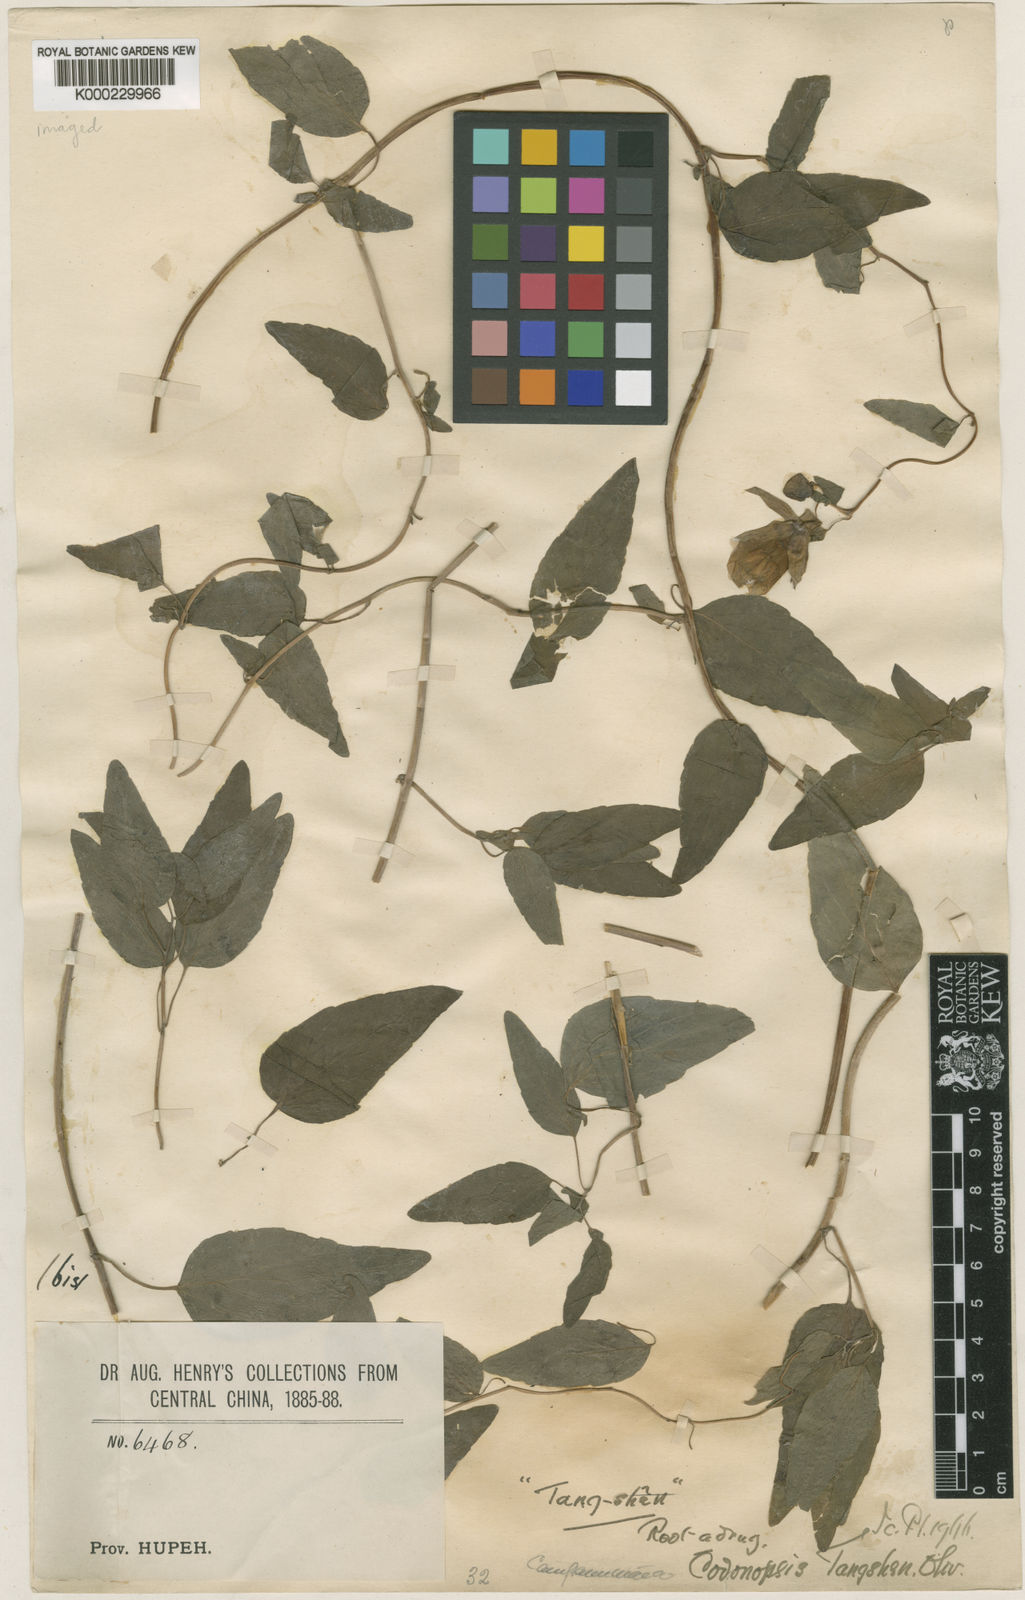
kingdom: Plantae
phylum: Tracheophyta
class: Magnoliopsida
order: Asterales
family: Campanulaceae
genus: Codonopsis
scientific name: Codonopsis pilosula
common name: Bellflower
